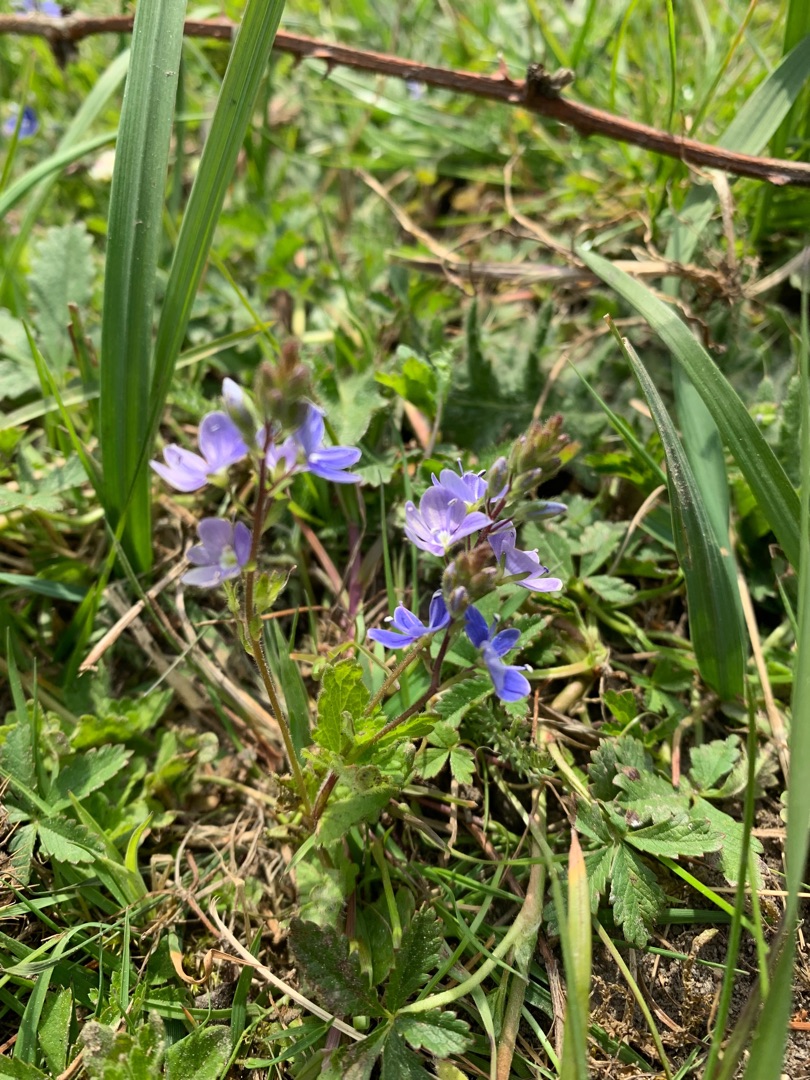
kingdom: Plantae
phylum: Tracheophyta
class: Magnoliopsida
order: Lamiales
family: Plantaginaceae
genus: Veronica
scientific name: Veronica chamaedrys
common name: Tveskægget ærenpris
